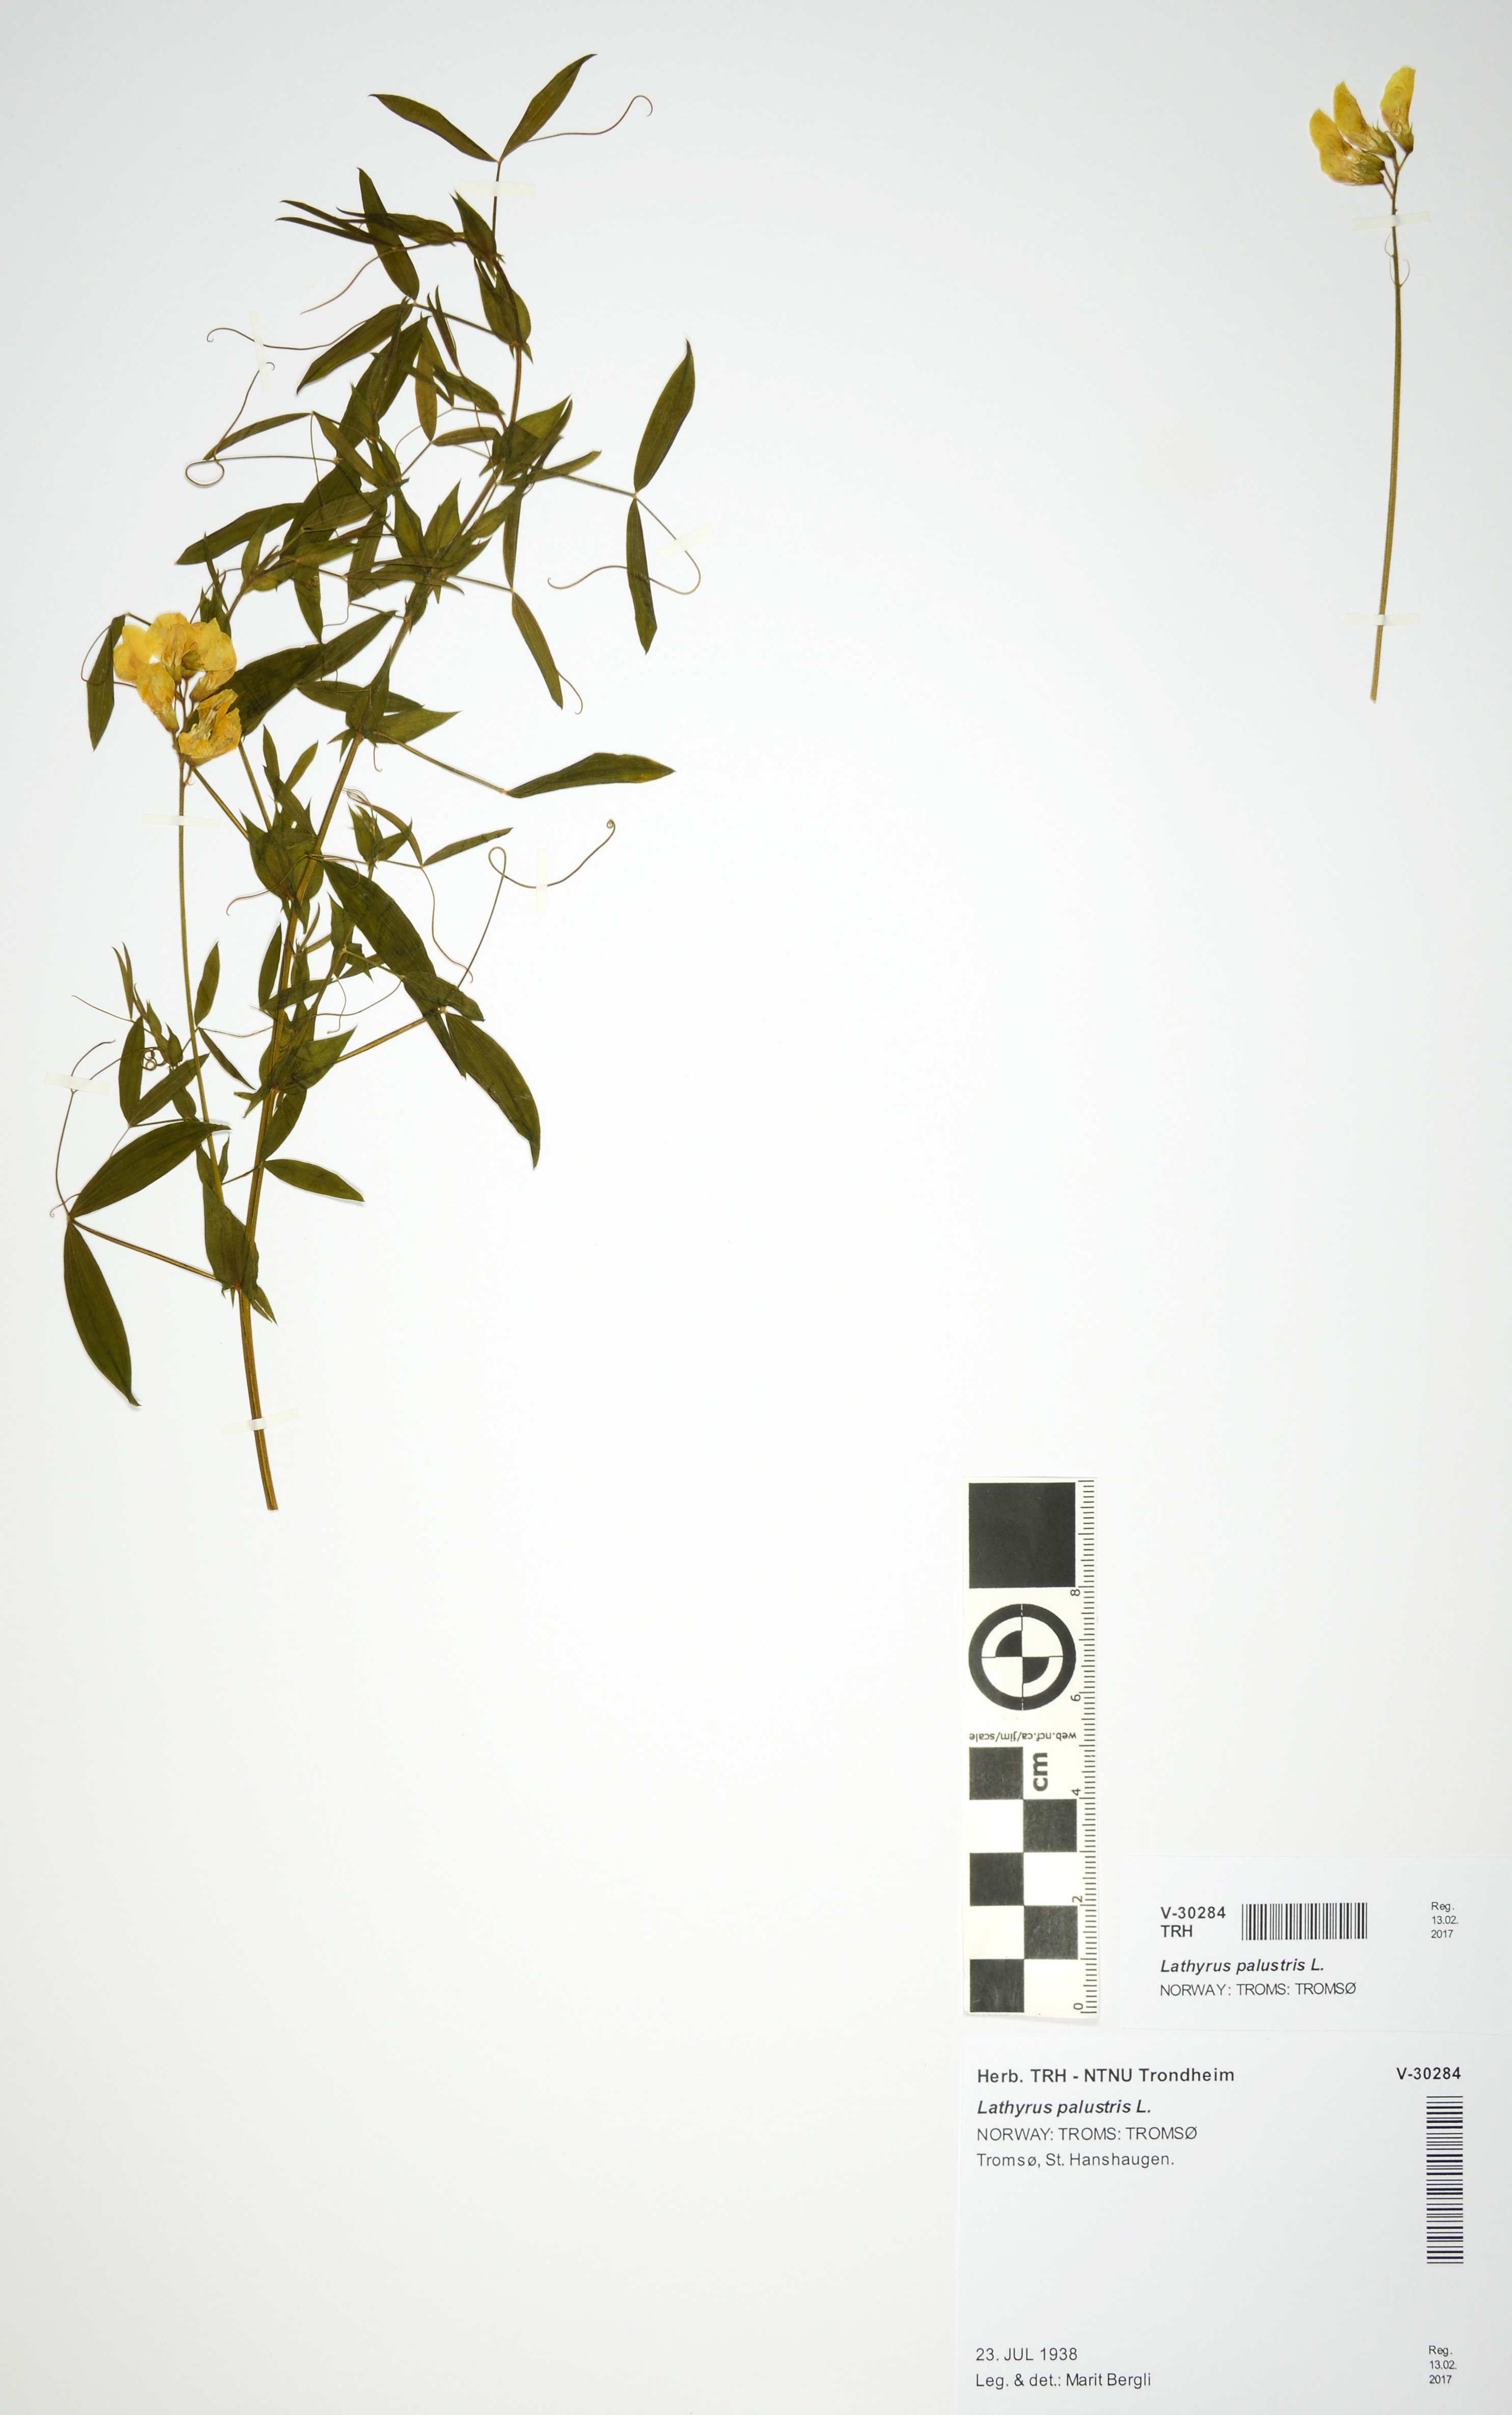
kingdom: Plantae
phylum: Tracheophyta
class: Magnoliopsida
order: Fabales
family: Fabaceae
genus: Lathyrus
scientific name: Lathyrus pratensis
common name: Meadow vetchling
